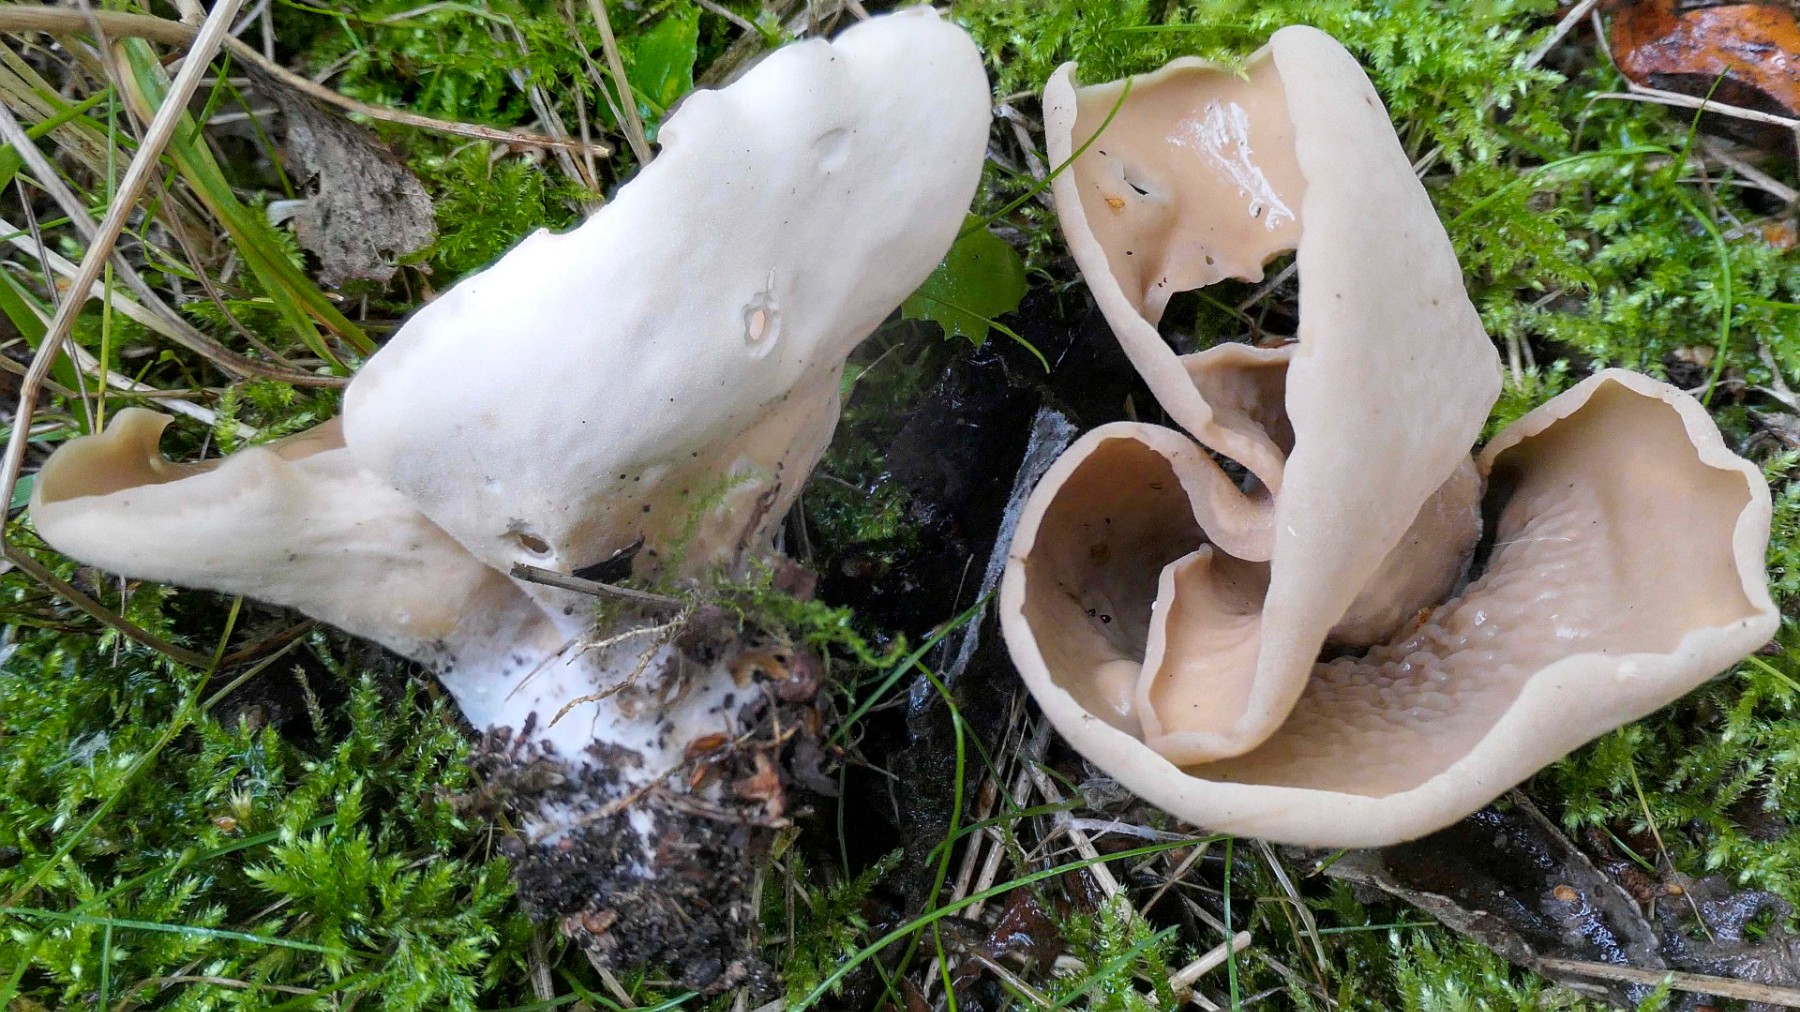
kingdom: Fungi
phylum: Ascomycota
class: Pezizomycetes
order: Pezizales
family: Otideaceae
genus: Otidea
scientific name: Otidea alutacea
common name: læder-ørebæger
